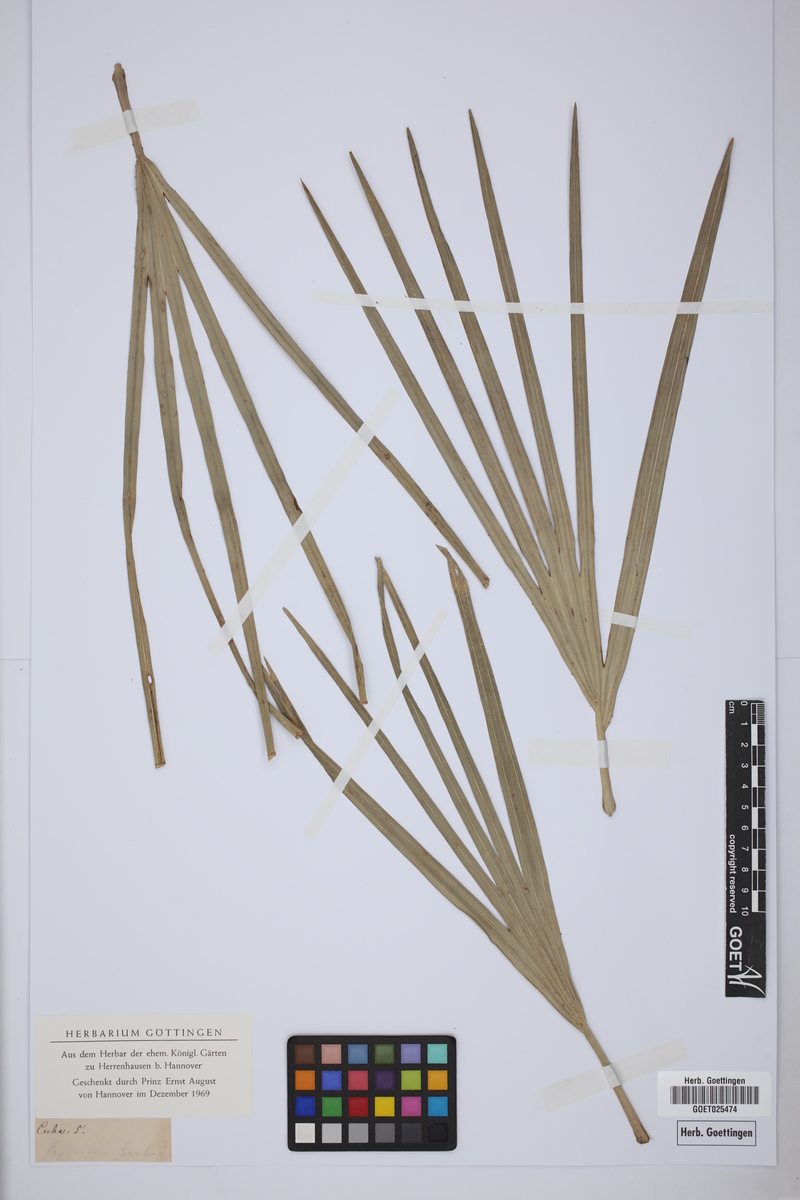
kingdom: Plantae
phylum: Tracheophyta
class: Liliopsida
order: Arecales
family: Arecaceae
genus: Coccothrinax
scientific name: Coccothrinax barbadensis
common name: Thatch palm
